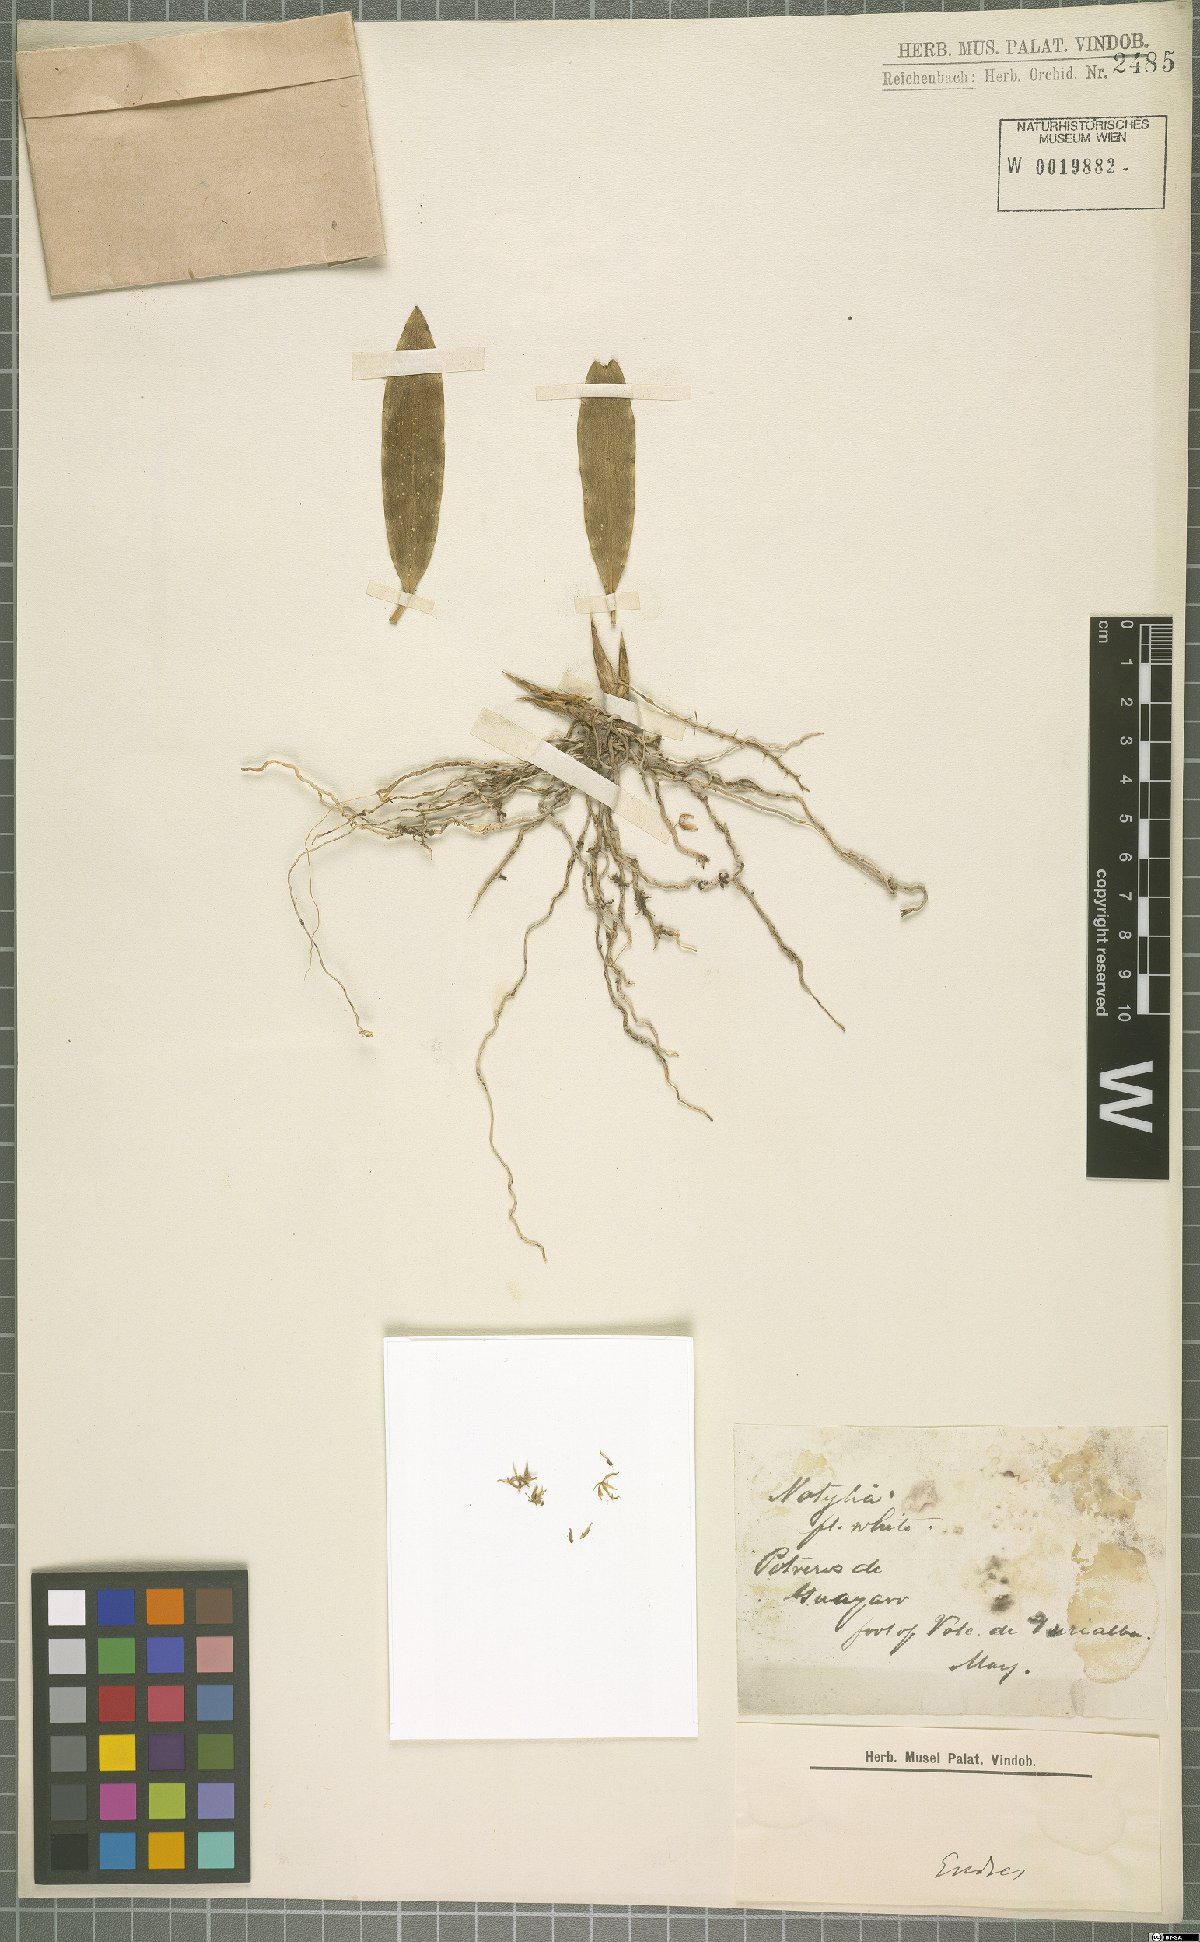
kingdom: Plantae
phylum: Tracheophyta
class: Liliopsida
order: Asparagales
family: Orchidaceae
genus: Notylia
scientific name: Notylia
